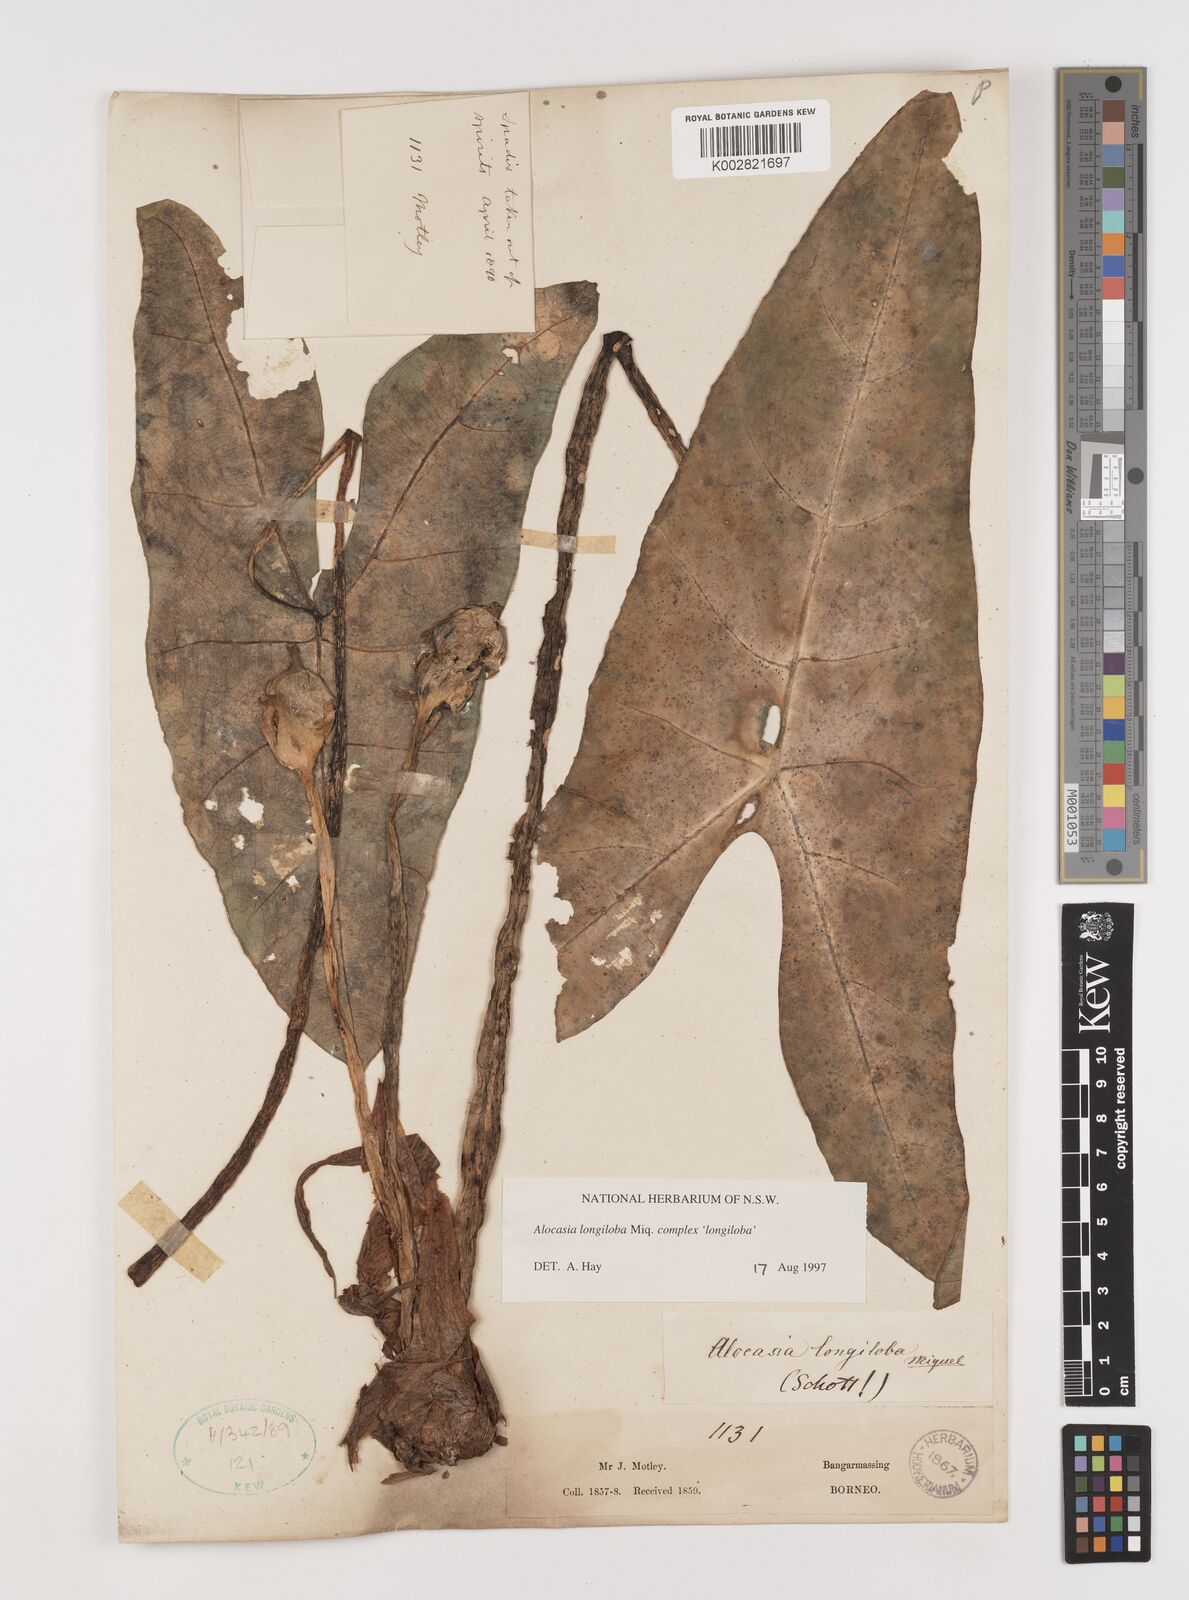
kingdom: Plantae
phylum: Tracheophyta
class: Liliopsida
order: Alismatales
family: Araceae
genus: Alocasia
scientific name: Alocasia longiloba
